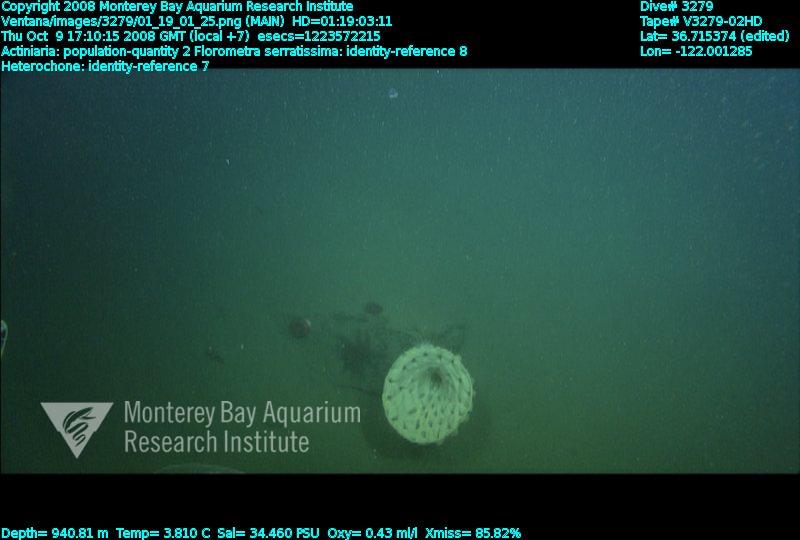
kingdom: Animalia
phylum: Porifera
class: Hexactinellida
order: Sceptrulophora
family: Aphrocallistidae
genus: Heterochone
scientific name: Heterochone
